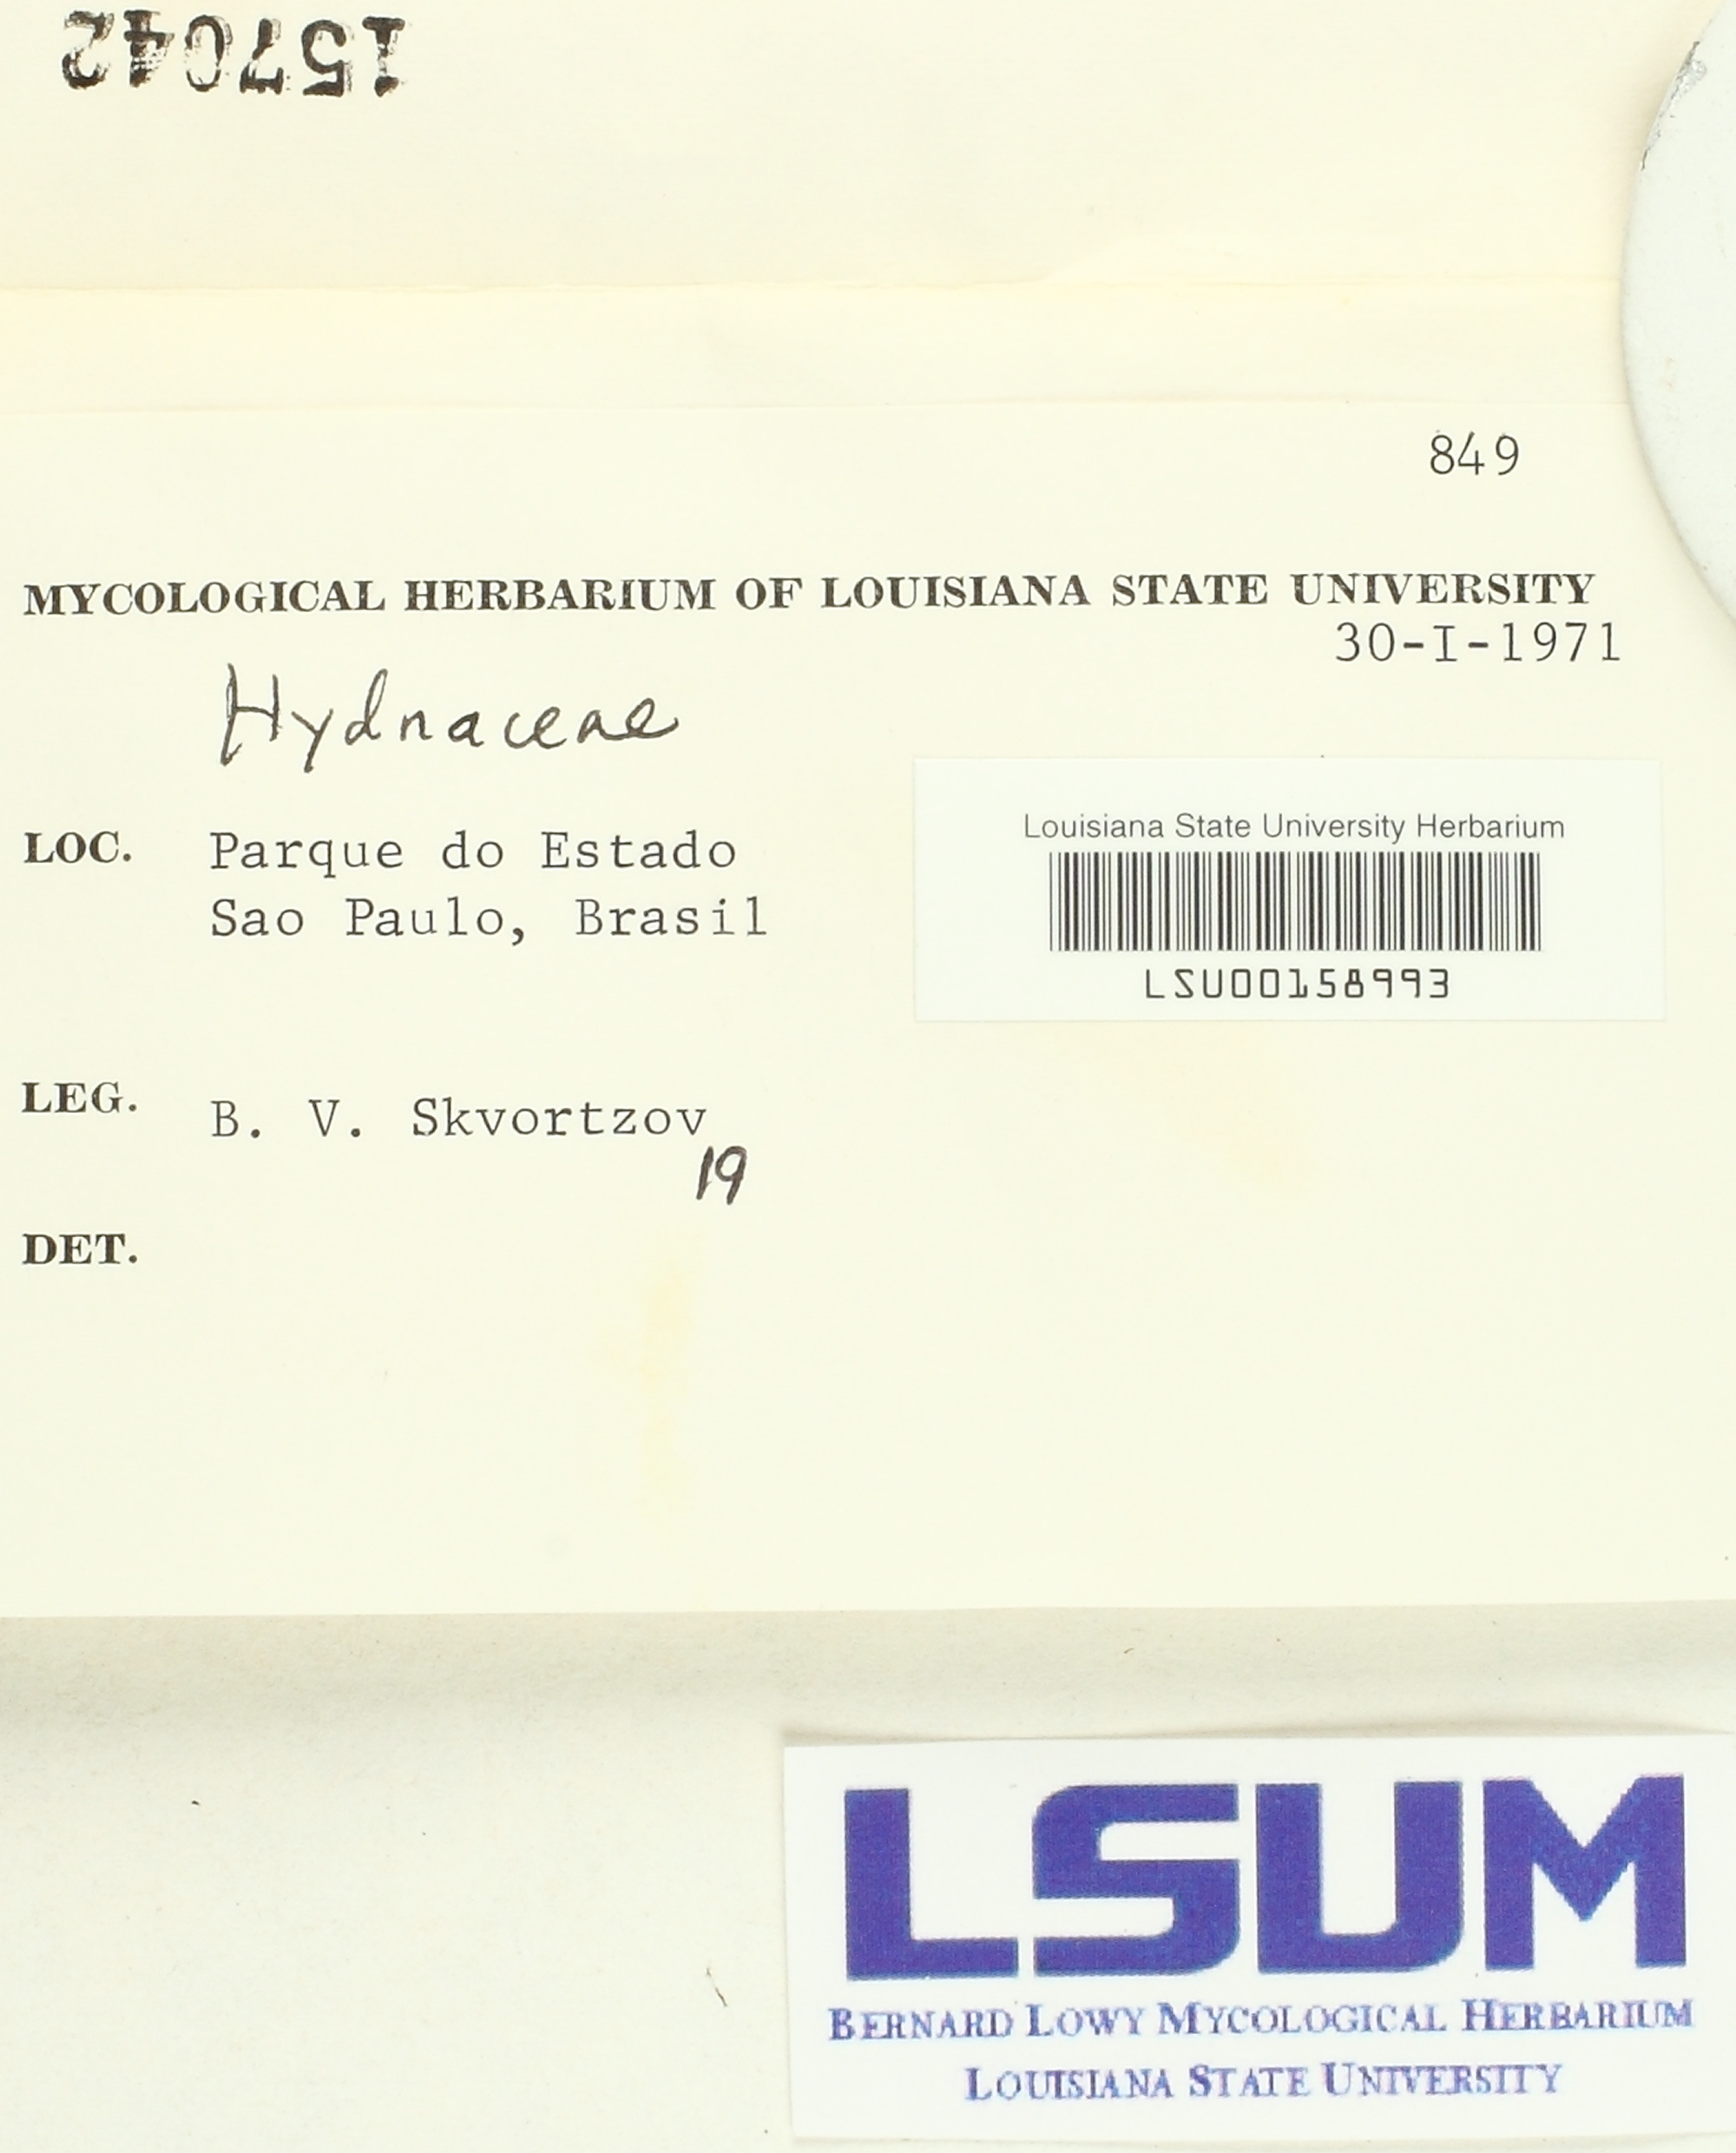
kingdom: Fungi
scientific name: Fungi
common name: Fungi
